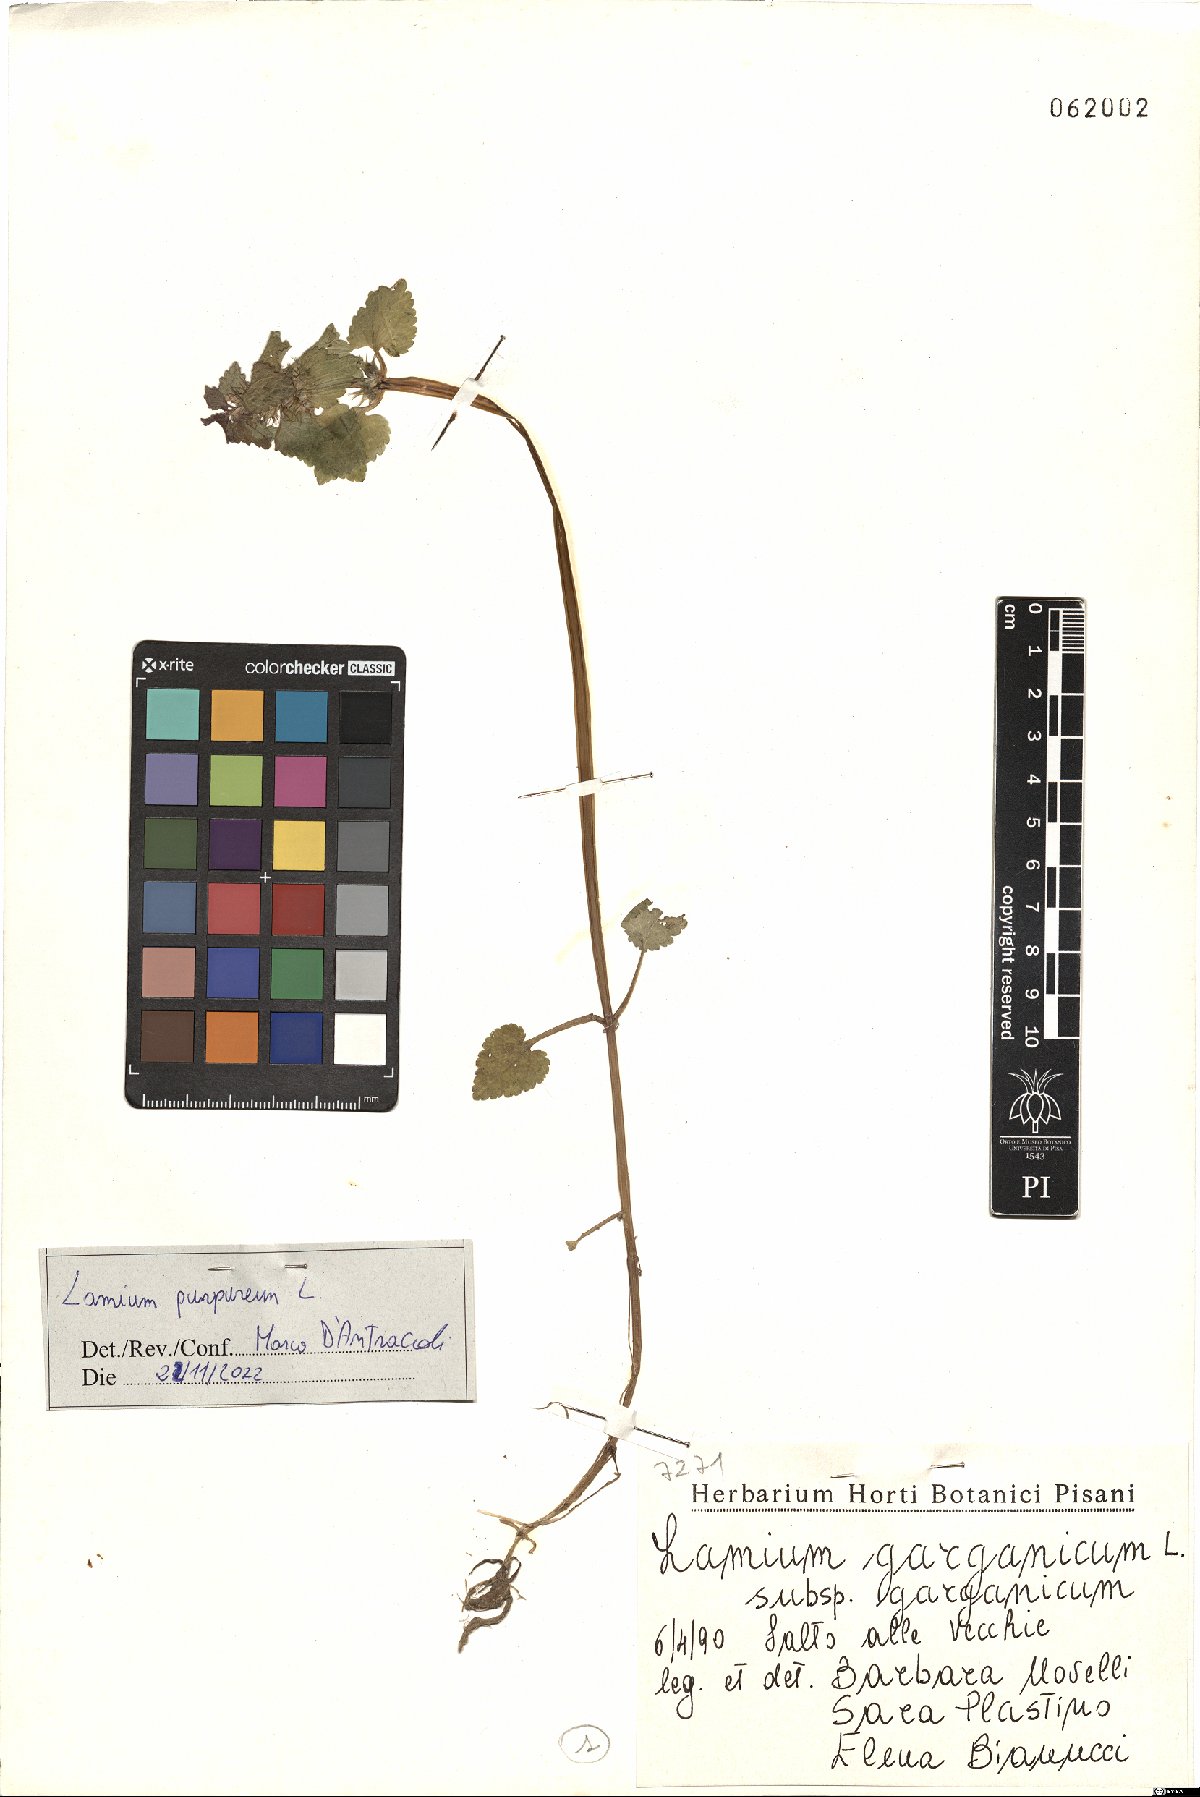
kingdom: Plantae
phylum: Tracheophyta
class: Magnoliopsida
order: Lamiales
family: Lamiaceae
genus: Lamium
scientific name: Lamium purpureum
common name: Red dead-nettle
